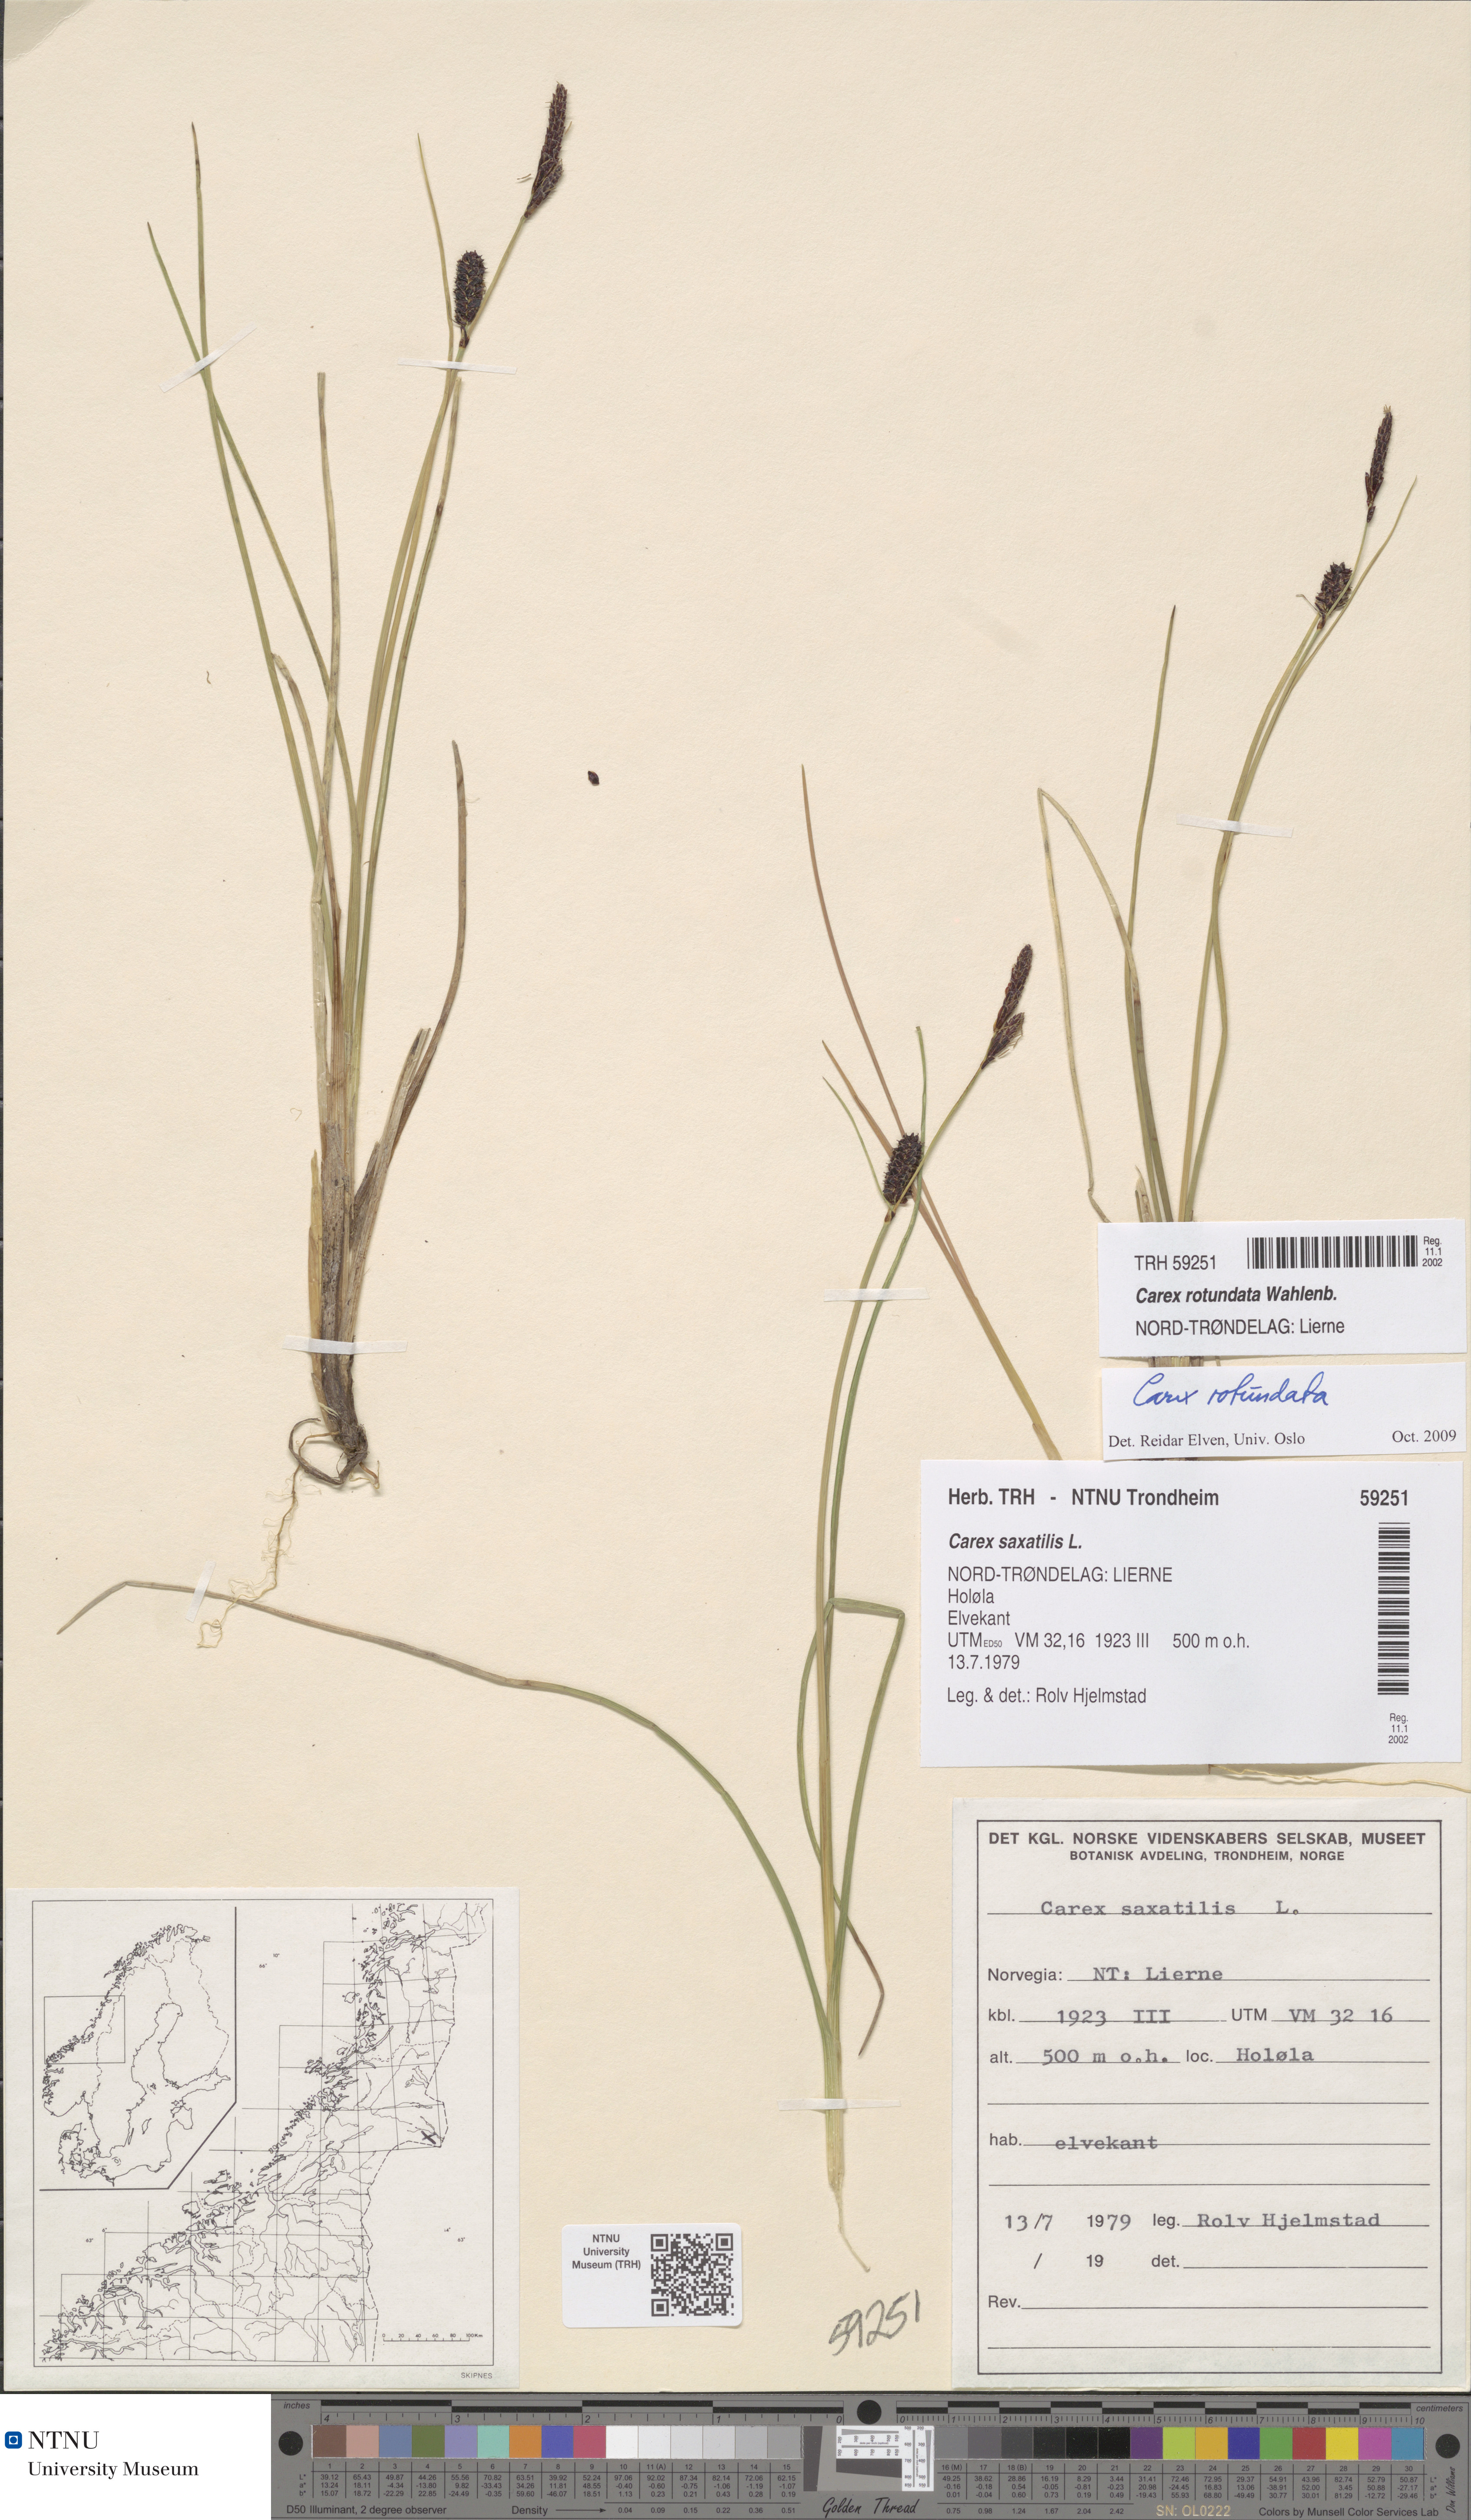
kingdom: Plantae
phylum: Tracheophyta
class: Liliopsida
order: Poales
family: Cyperaceae
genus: Carex
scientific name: Carex rotundata
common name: Round-fruited sedge
